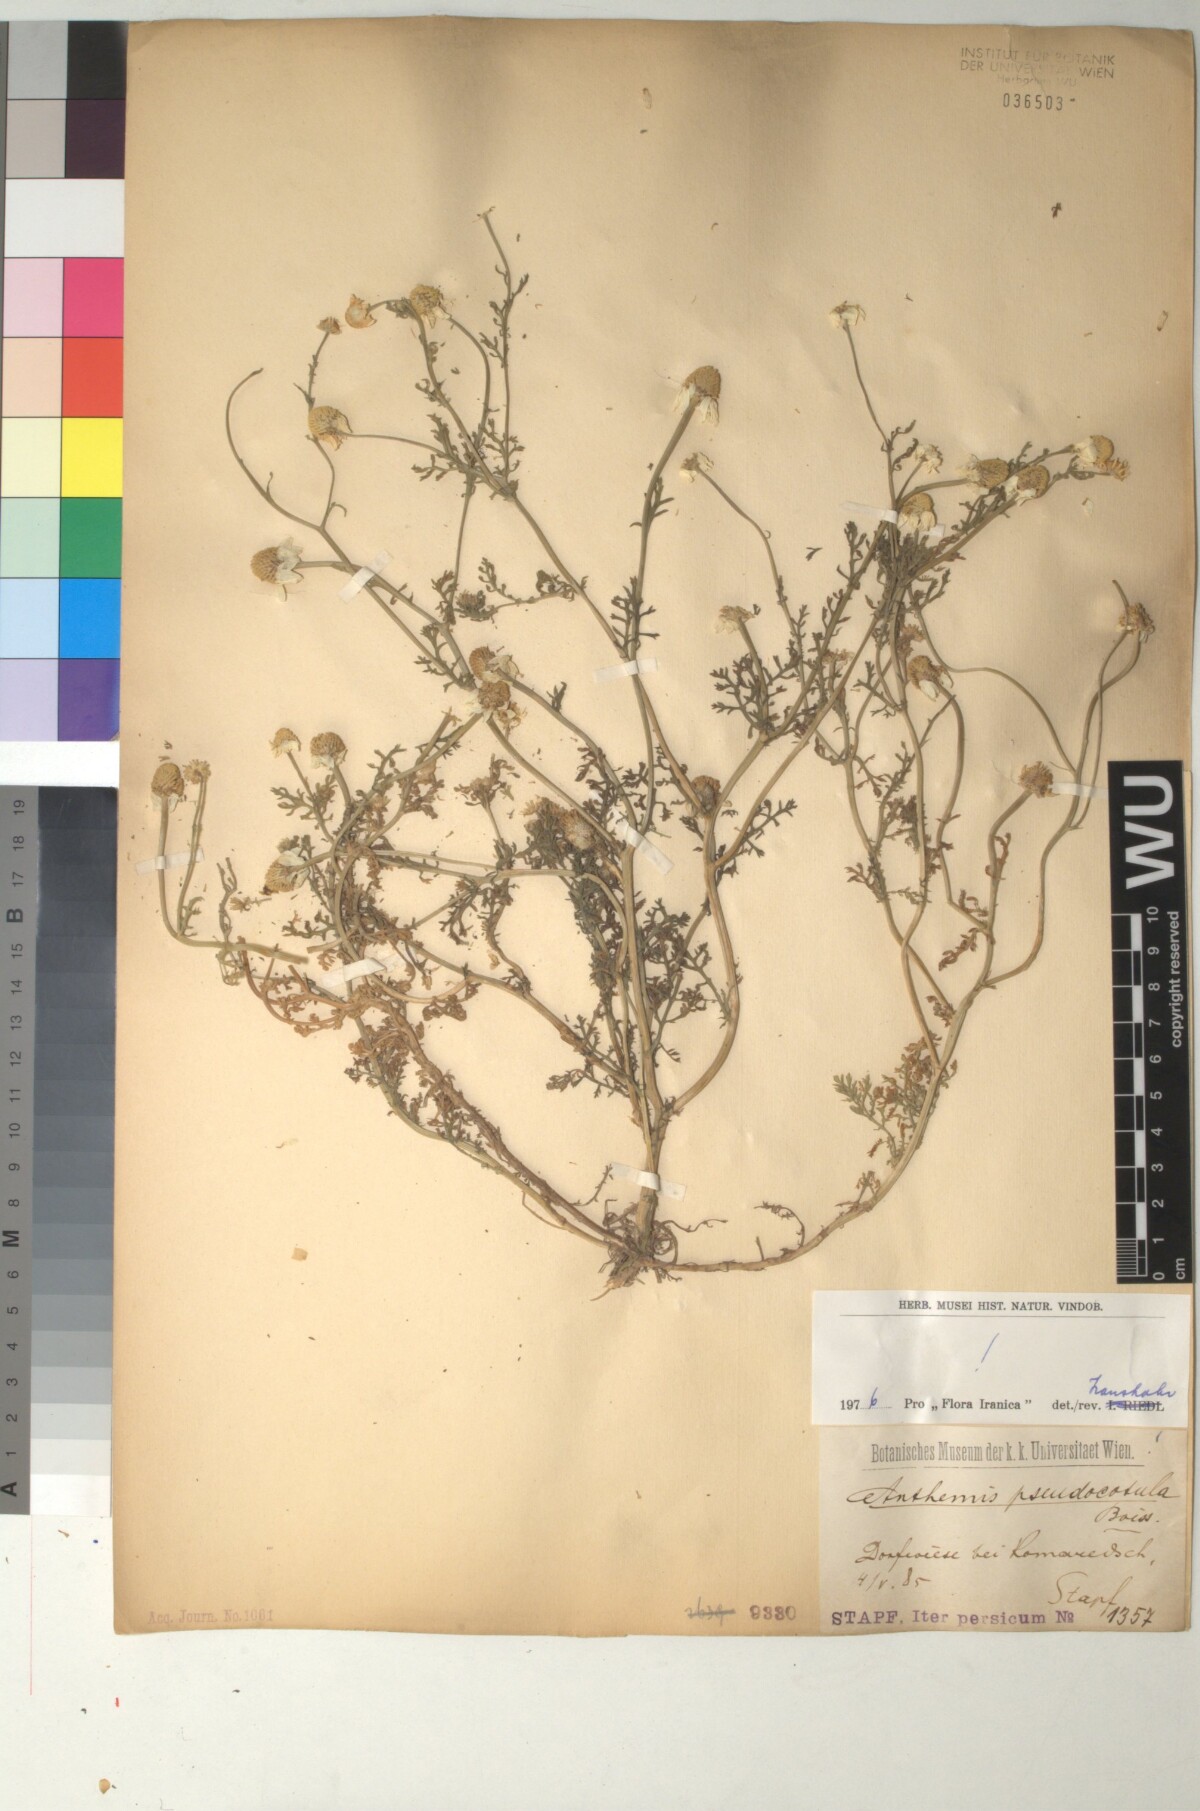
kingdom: Plantae
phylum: Tracheophyta
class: Magnoliopsida
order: Asterales
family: Asteraceae
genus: Anthemis
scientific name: Anthemis pseudocotula
